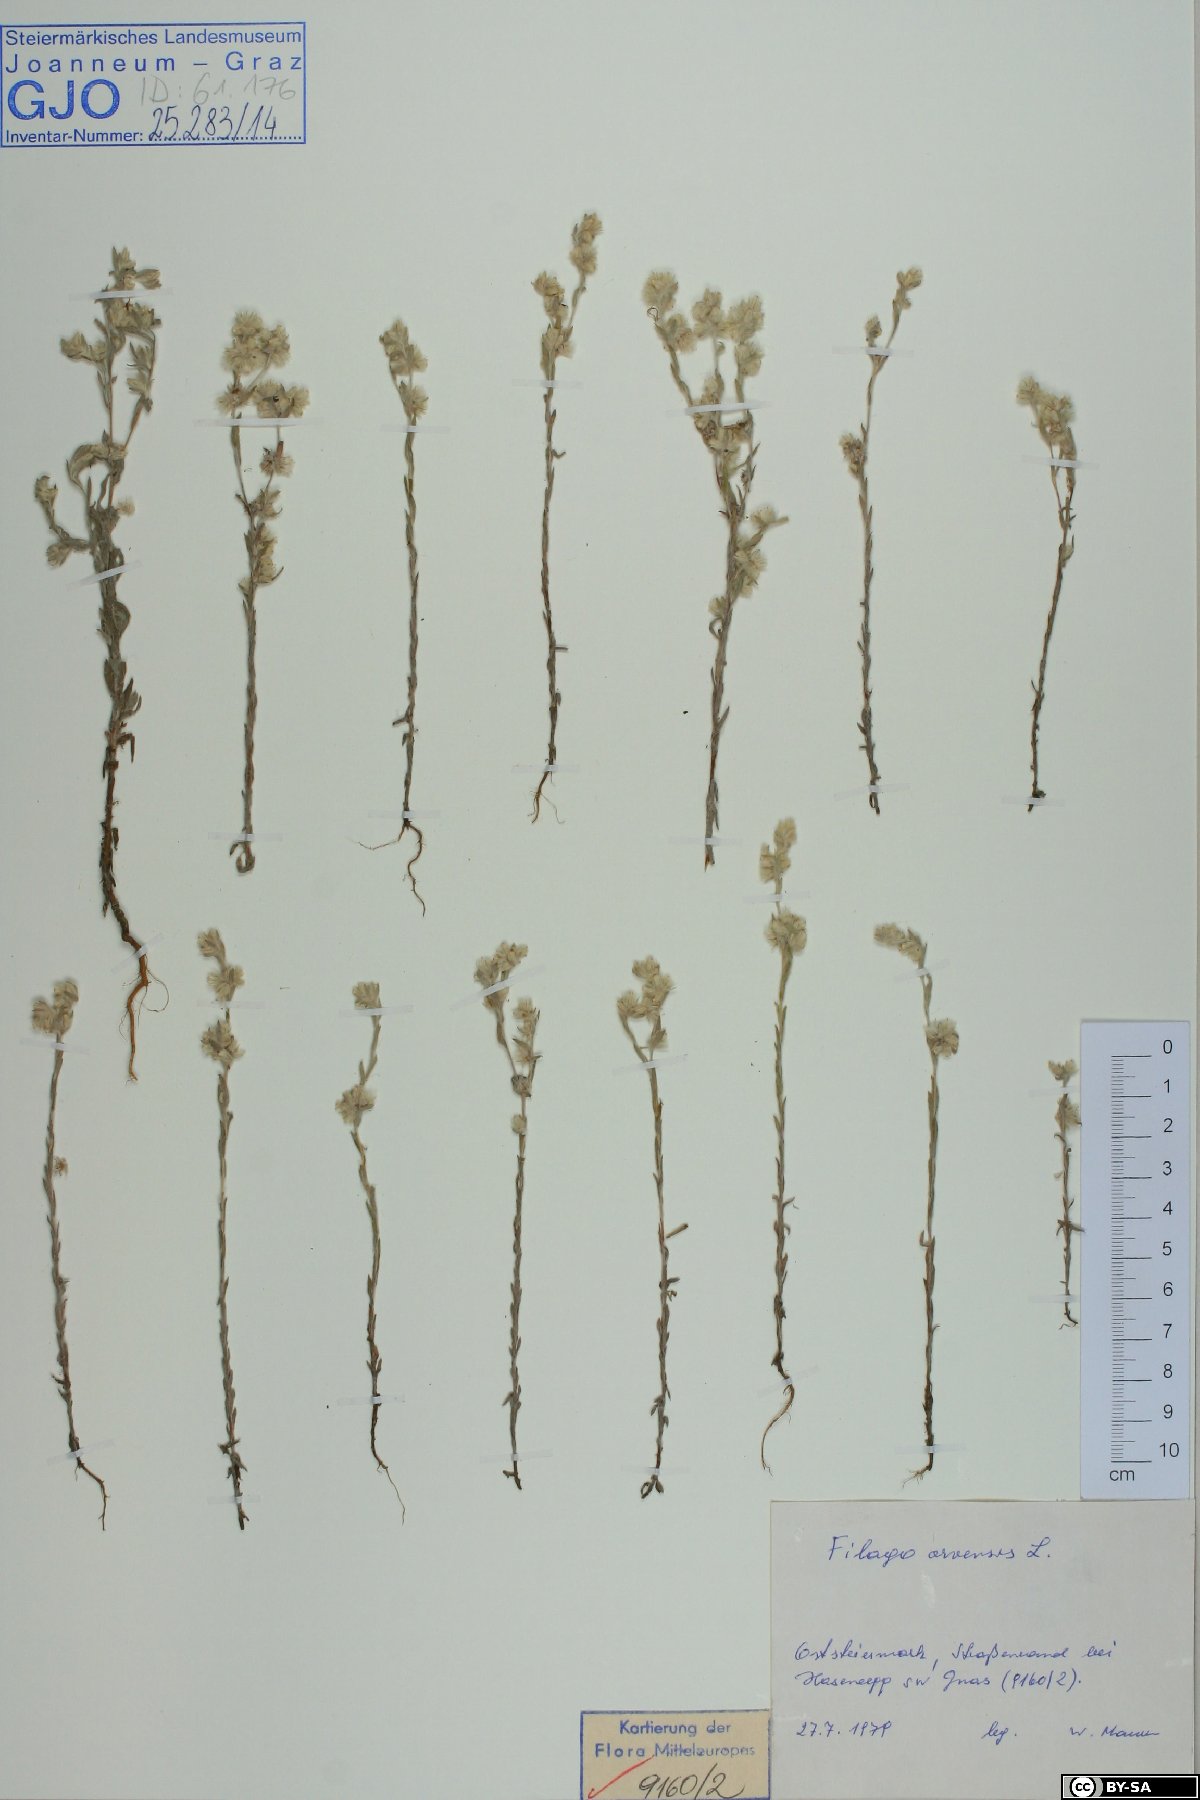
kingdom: Plantae
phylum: Tracheophyta
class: Magnoliopsida
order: Asterales
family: Asteraceae
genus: Filago
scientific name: Filago arvensis
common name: Field cudweed
